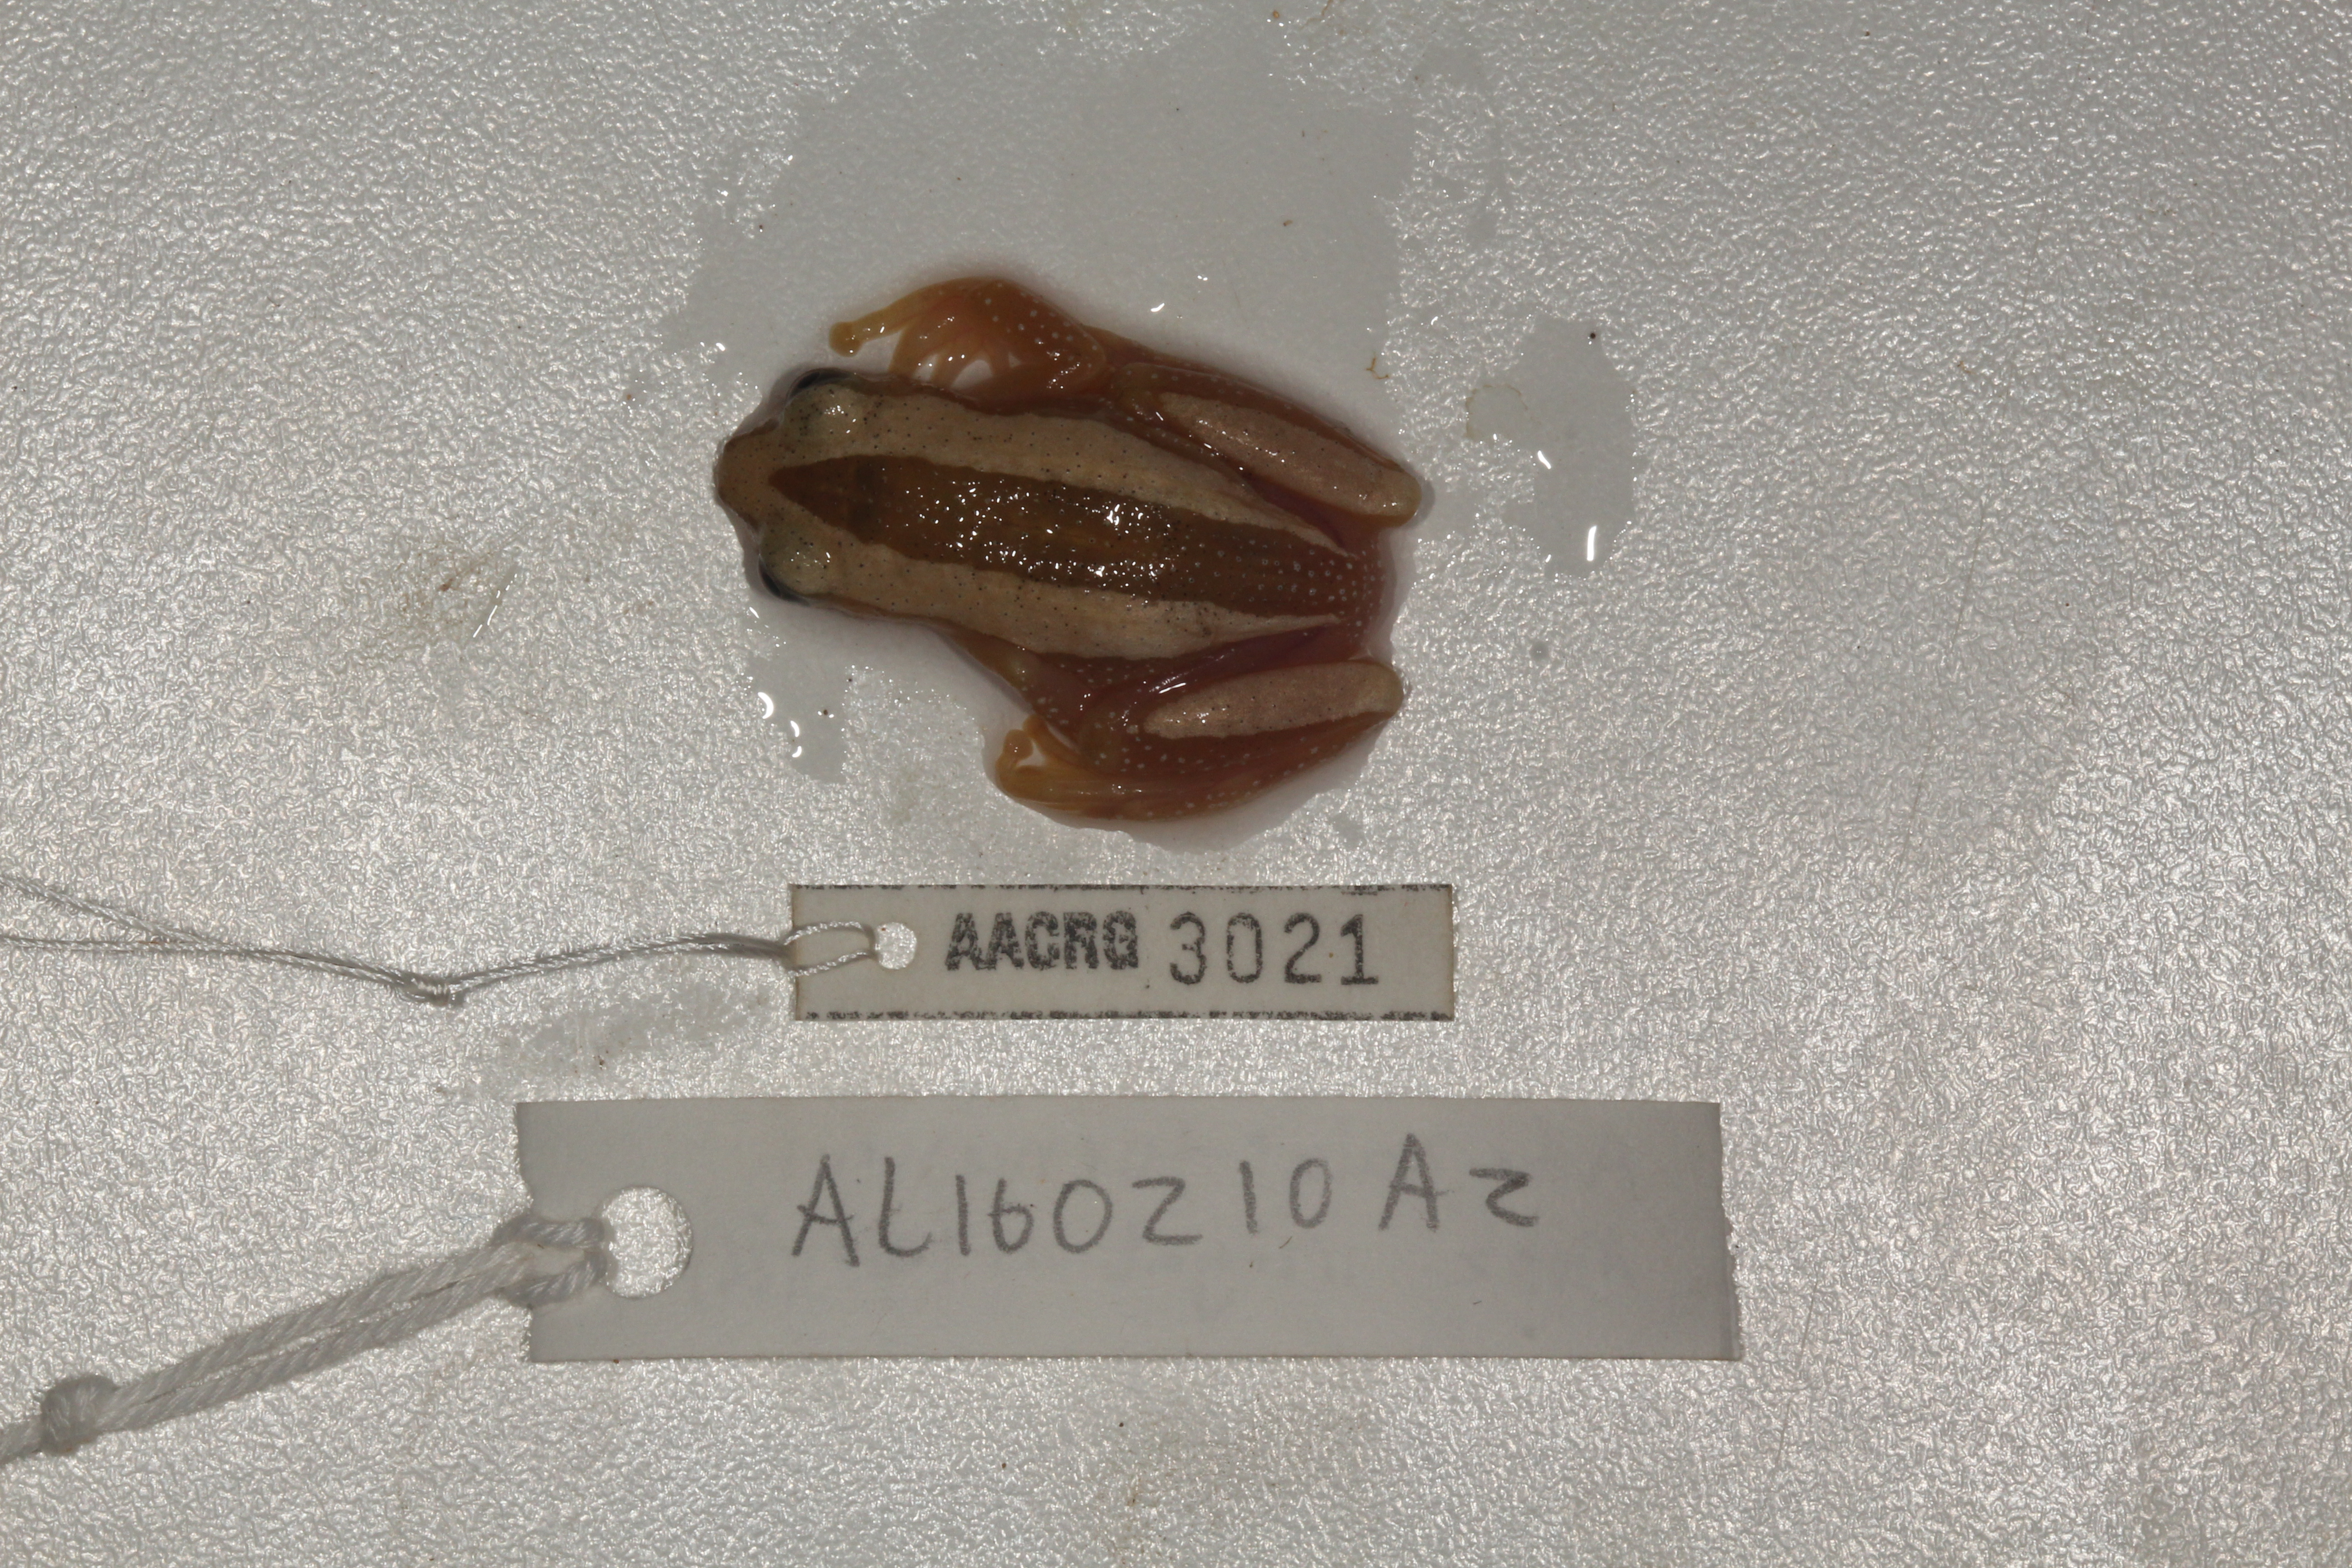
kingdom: Animalia
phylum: Chordata
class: Amphibia
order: Anura
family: Hyperoliidae
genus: Afrixalus
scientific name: Afrixalus fornasini
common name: Fornasini's spiny reed frog
